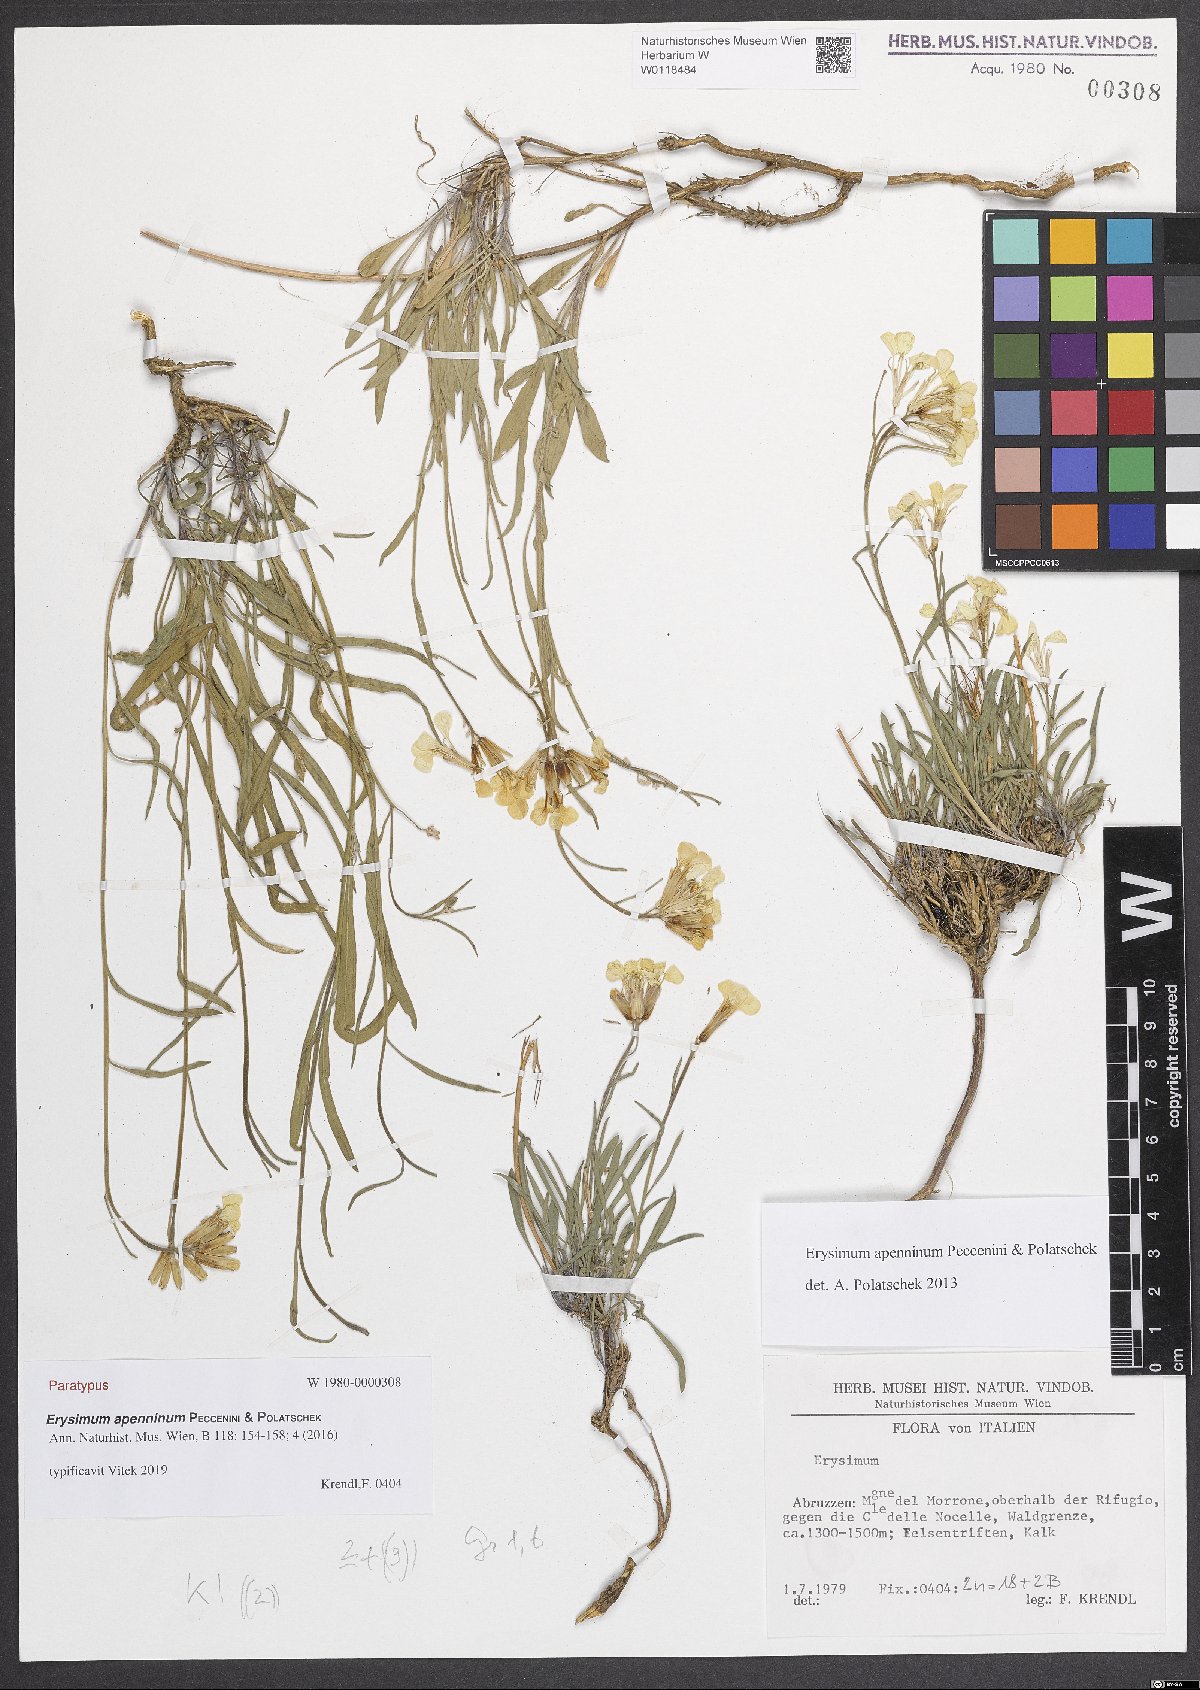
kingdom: Plantae
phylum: Tracheophyta
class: Magnoliopsida
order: Brassicales
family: Brassicaceae
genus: Erysimum
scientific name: Erysimum apenninum
